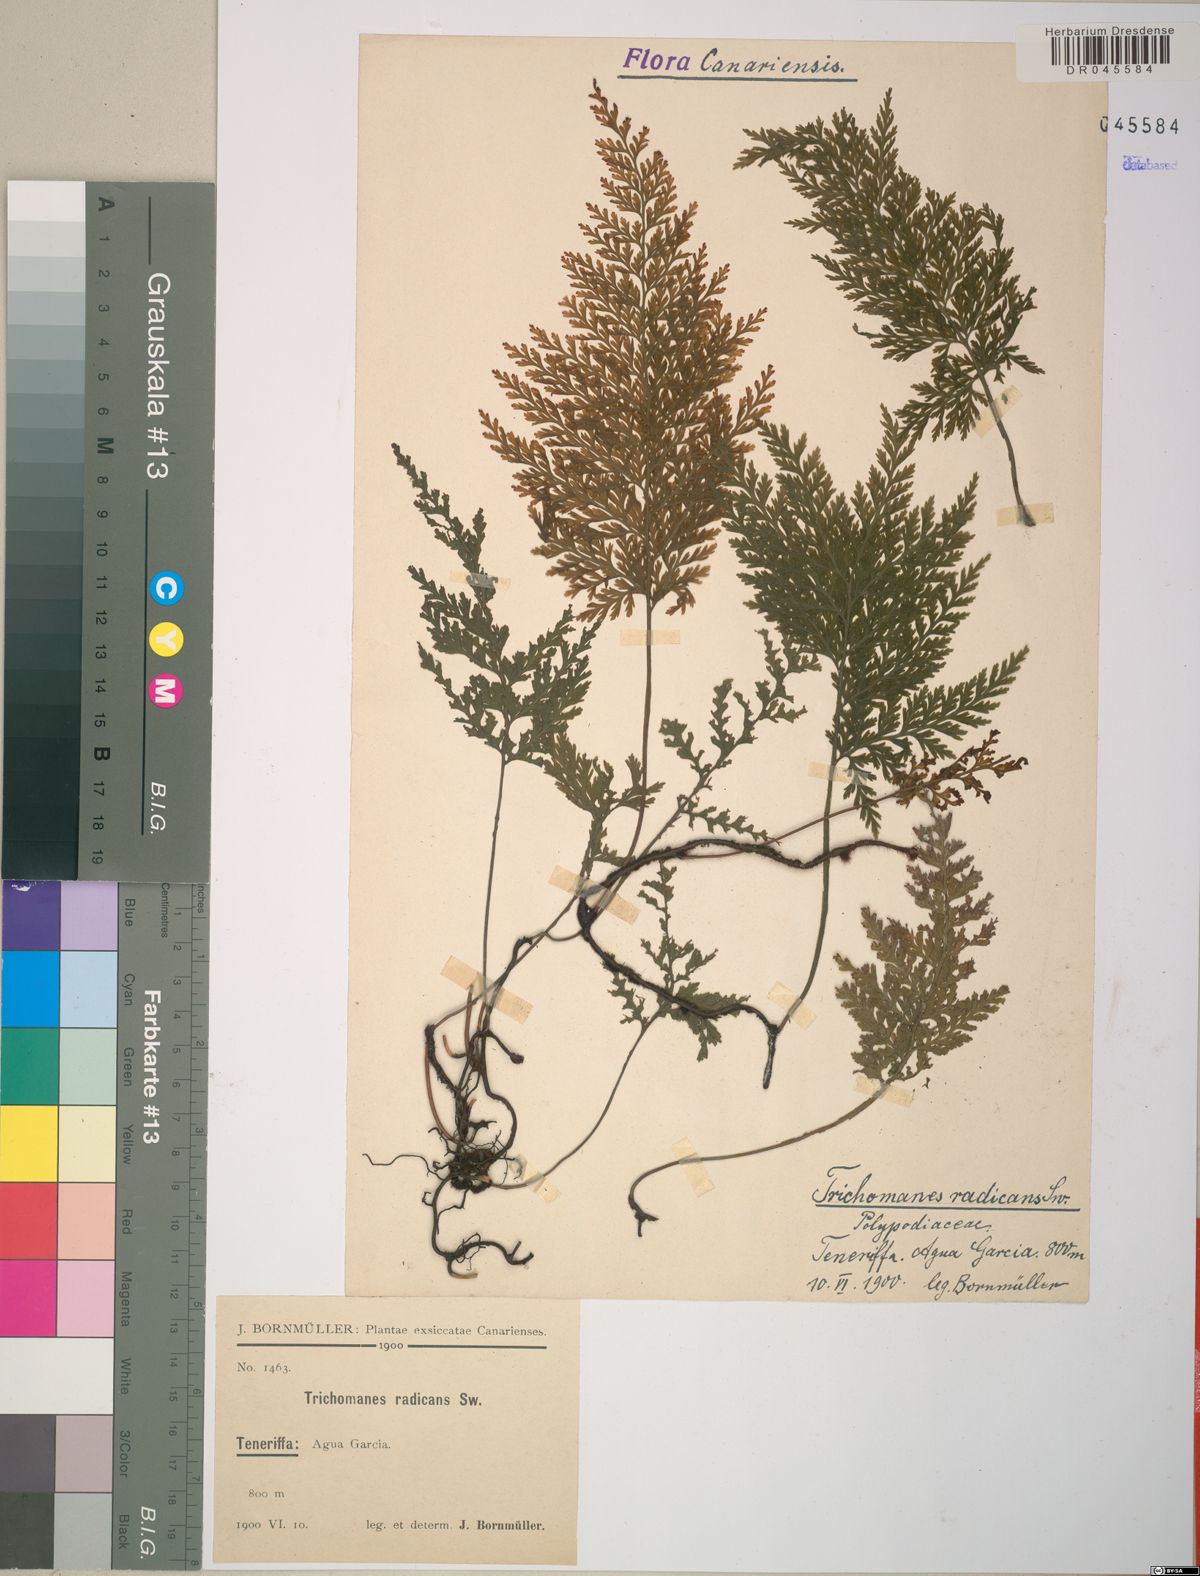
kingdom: Plantae
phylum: Tracheophyta
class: Polypodiopsida
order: Hymenophyllales
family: Hymenophyllaceae
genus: Vandenboschia
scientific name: Vandenboschia radicans
